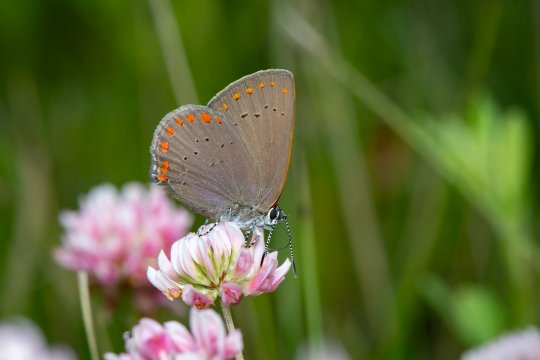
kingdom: Animalia
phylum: Arthropoda
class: Insecta
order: Lepidoptera
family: Lycaenidae
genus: Harkenclenus
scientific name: Harkenclenus titus
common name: Coral Hairstreak
